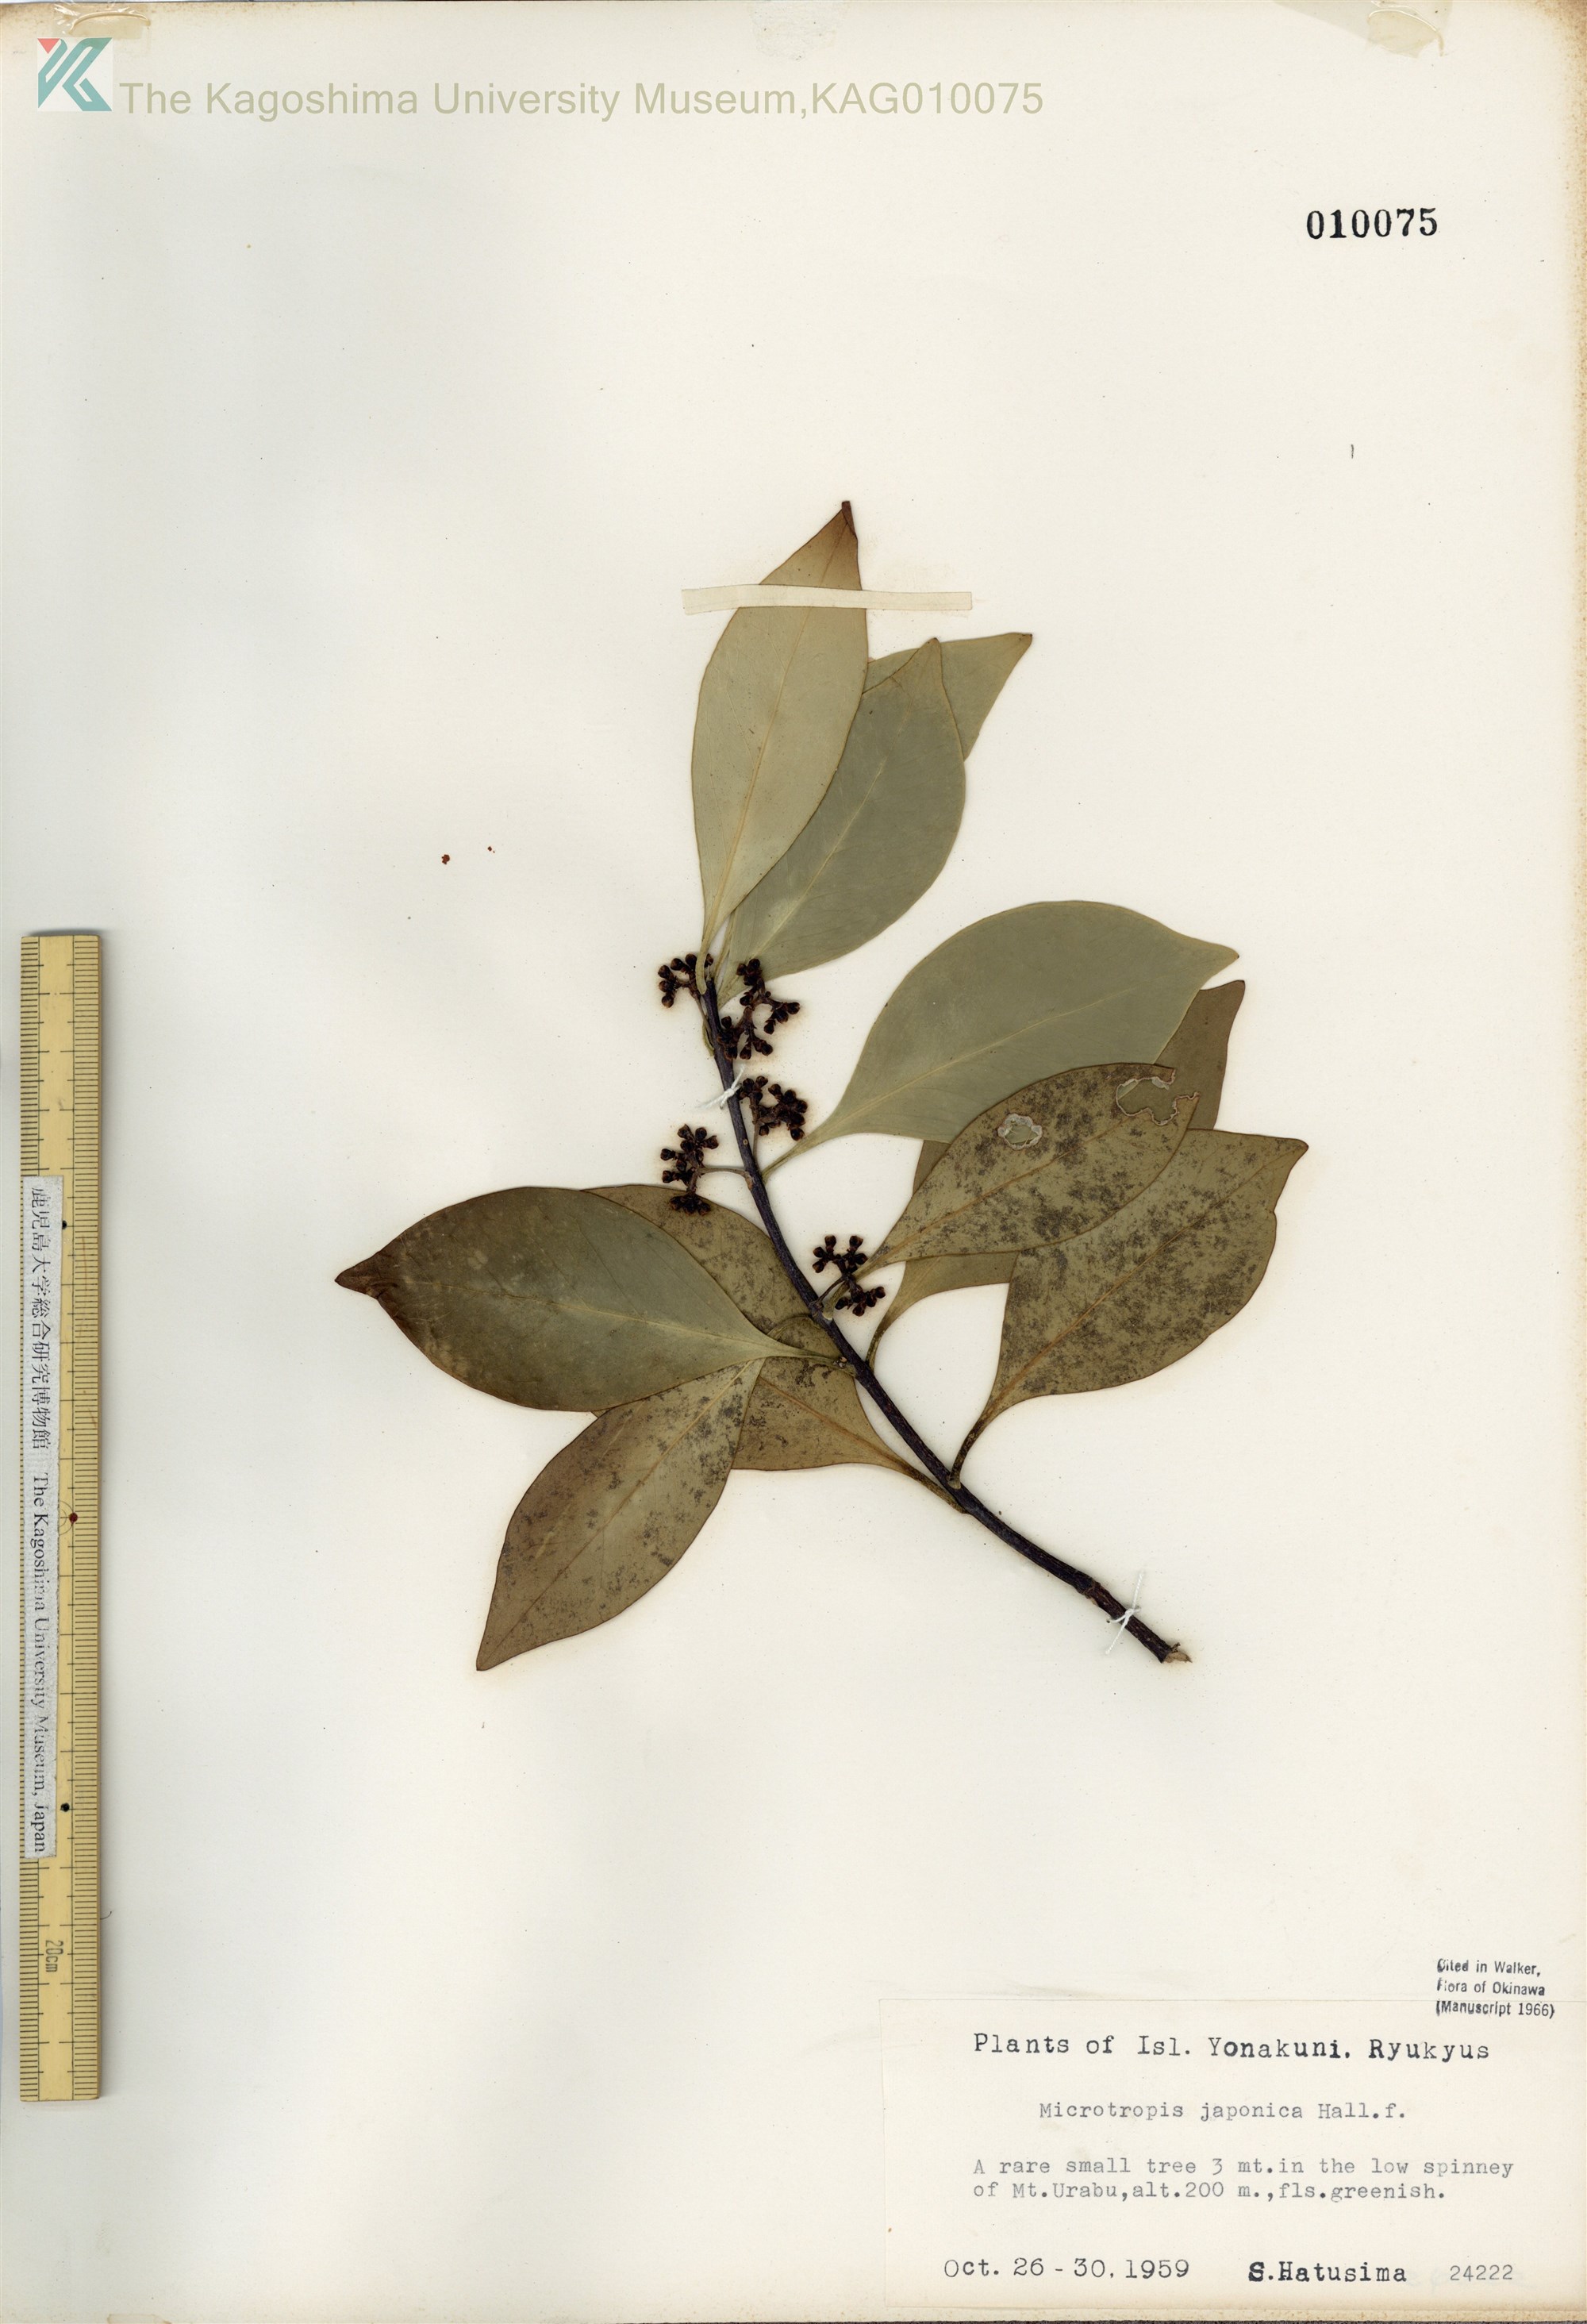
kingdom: Plantae
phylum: Tracheophyta
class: Magnoliopsida
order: Celastrales
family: Celastraceae
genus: Microtropis
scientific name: Microtropis japonica
